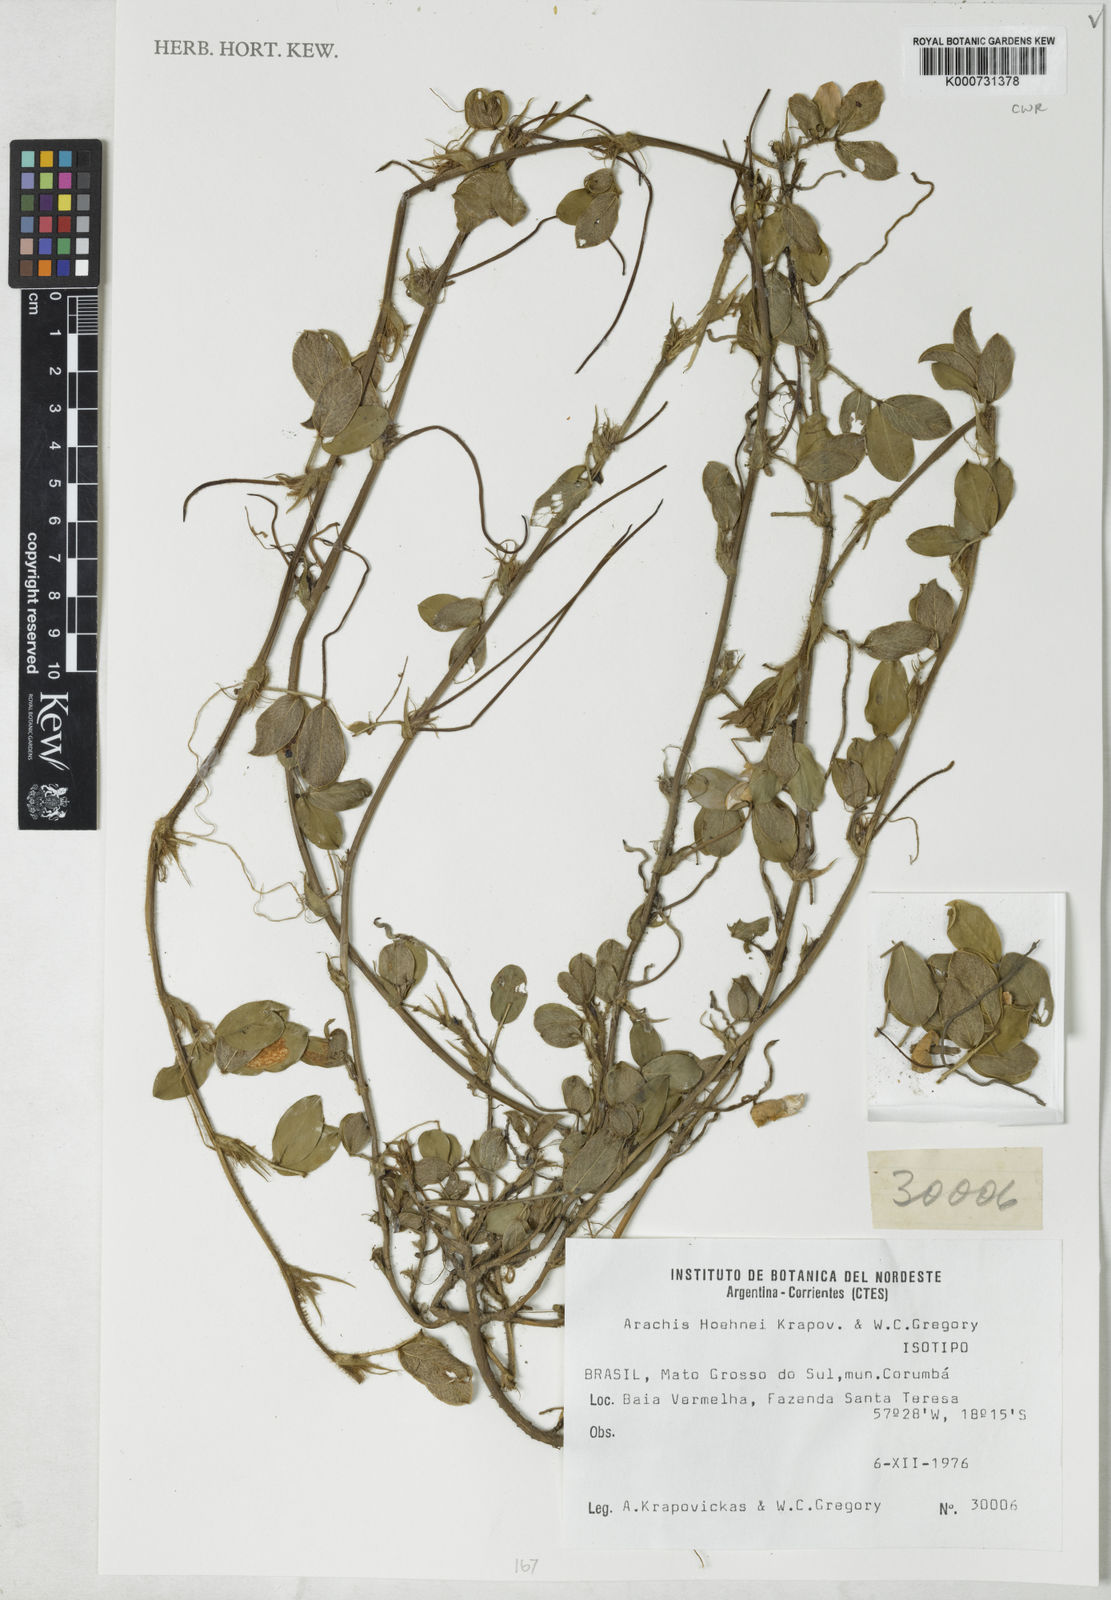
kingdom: Plantae
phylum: Tracheophyta
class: Magnoliopsida
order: Fabales
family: Fabaceae
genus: Arachis
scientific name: Arachis hoehnei
